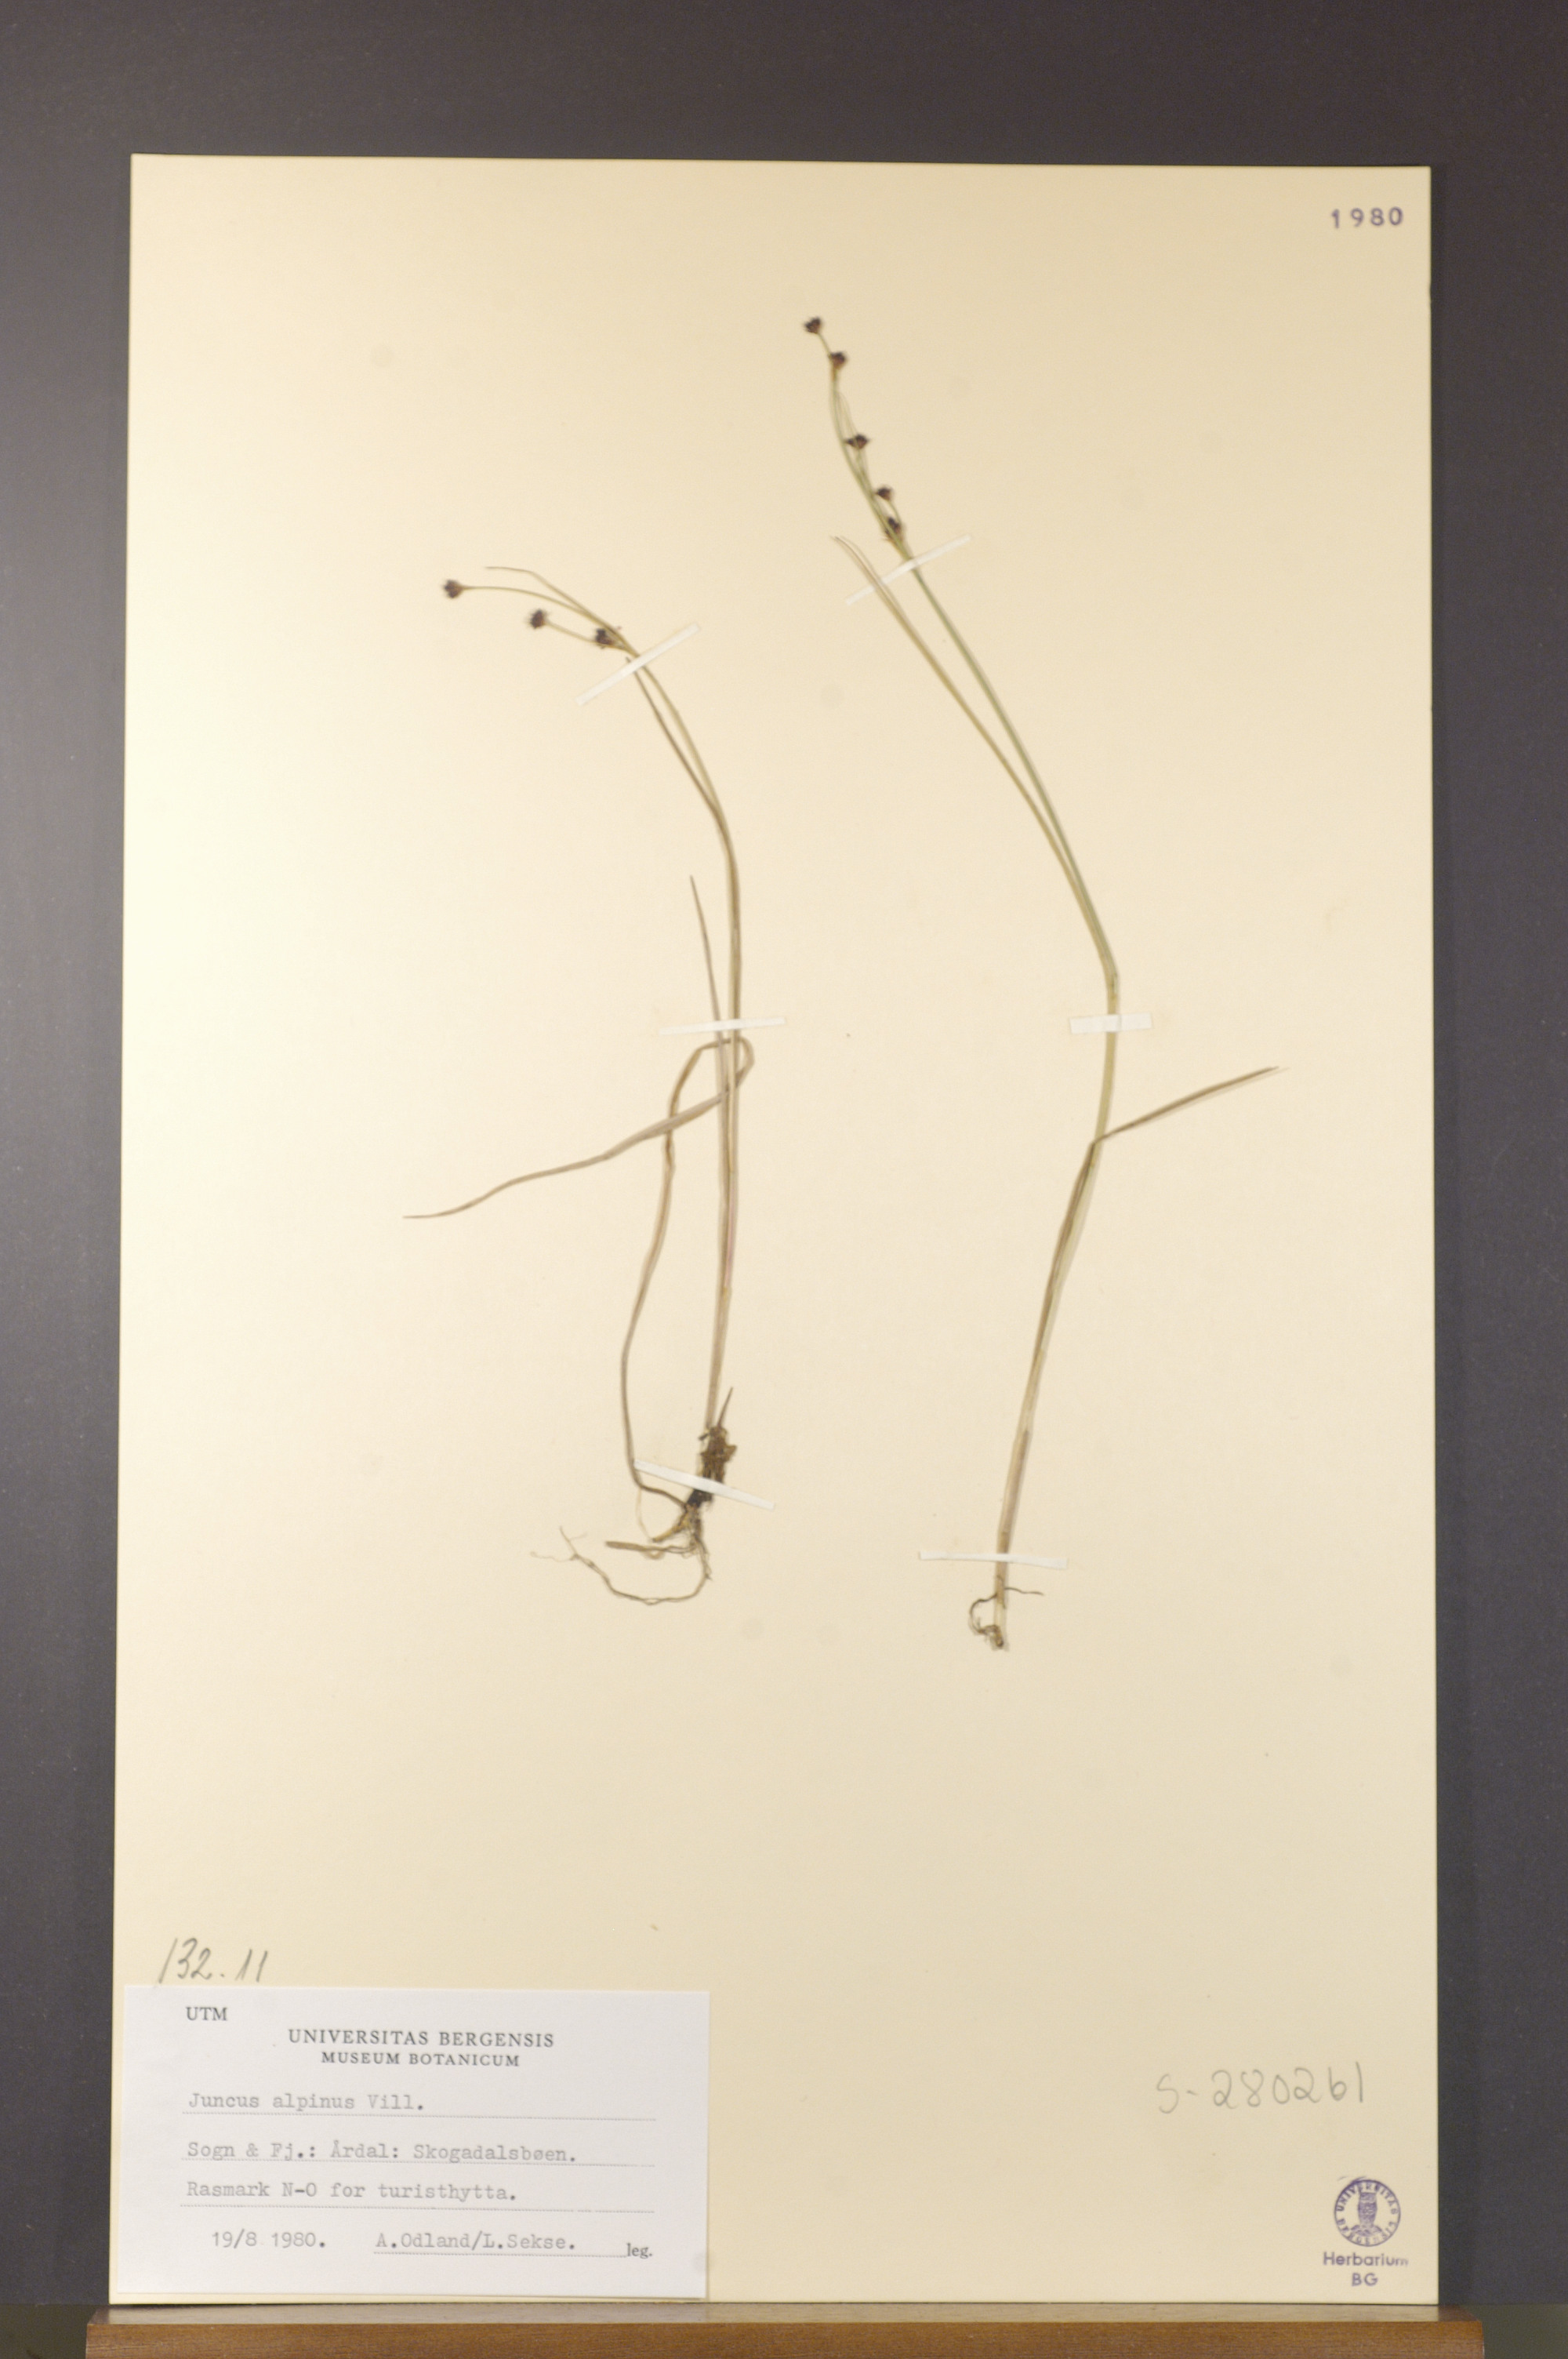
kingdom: Plantae
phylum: Tracheophyta
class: Liliopsida
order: Poales
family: Juncaceae
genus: Juncus
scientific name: Juncus alpinoarticulatus
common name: Alpine rush
